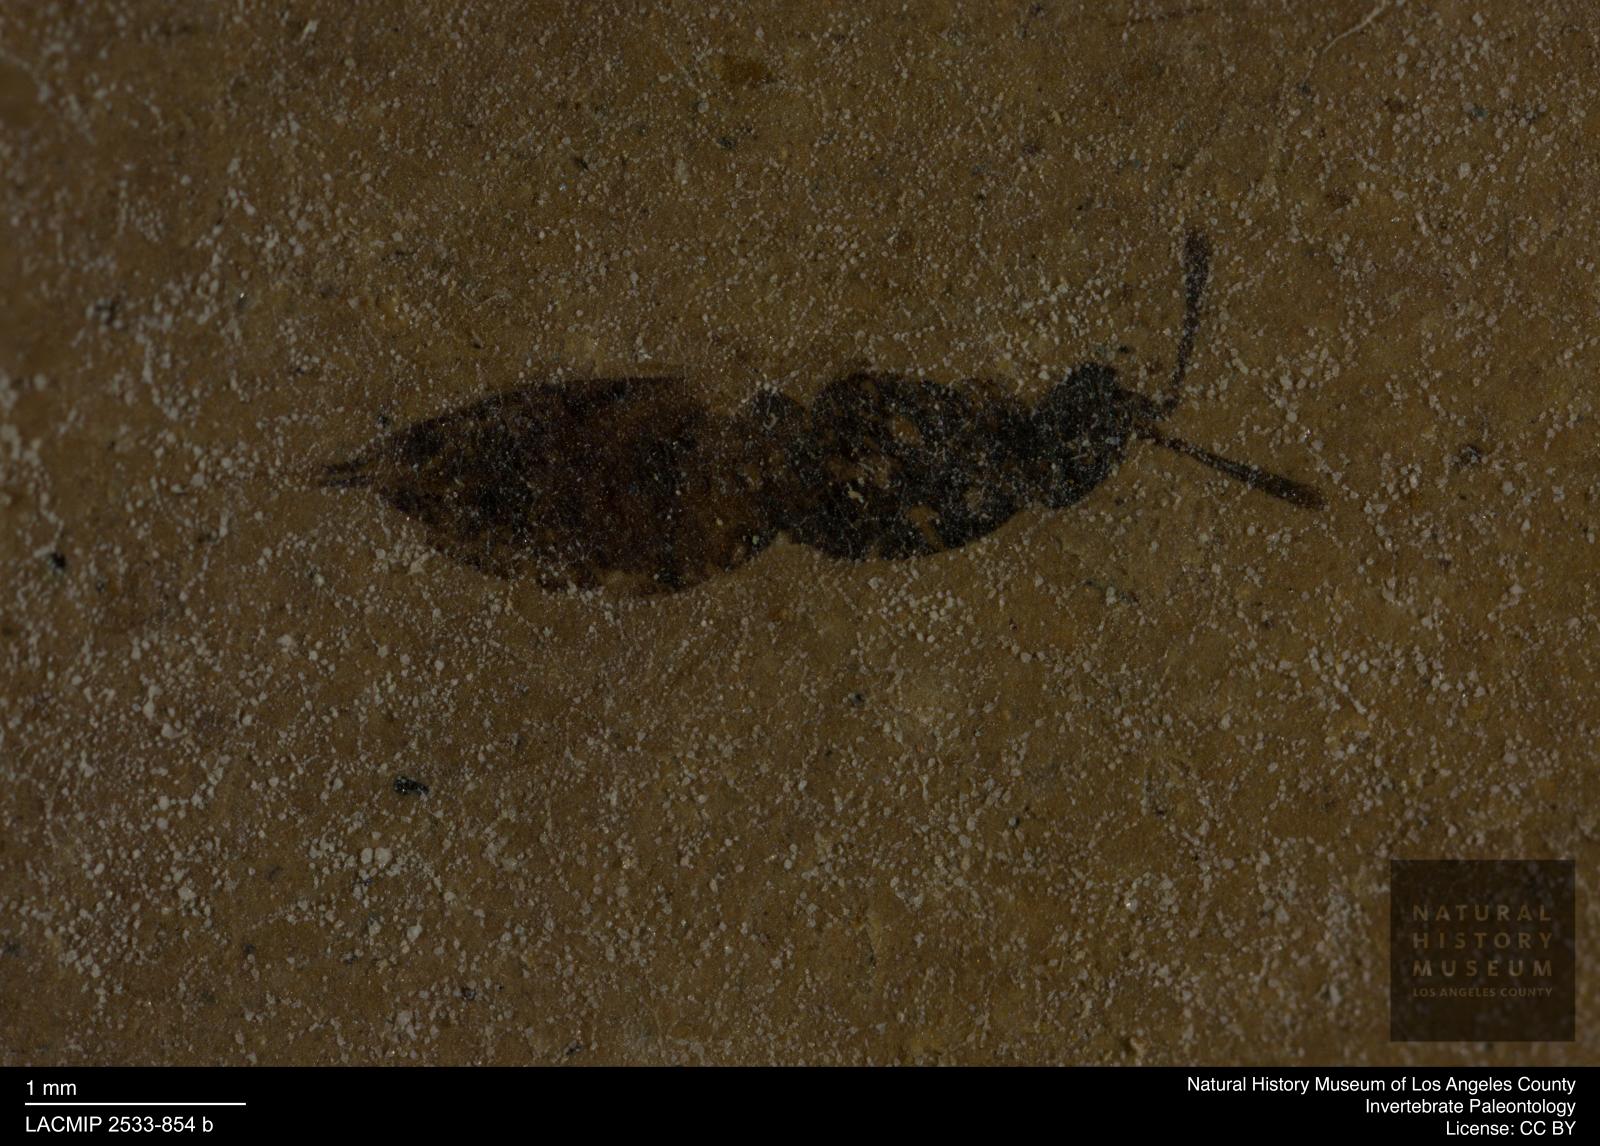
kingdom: Animalia
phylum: Arthropoda
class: Insecta
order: Hymenoptera
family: Pteromalidae
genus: Pteromalus
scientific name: Pteromalus rectispinus
